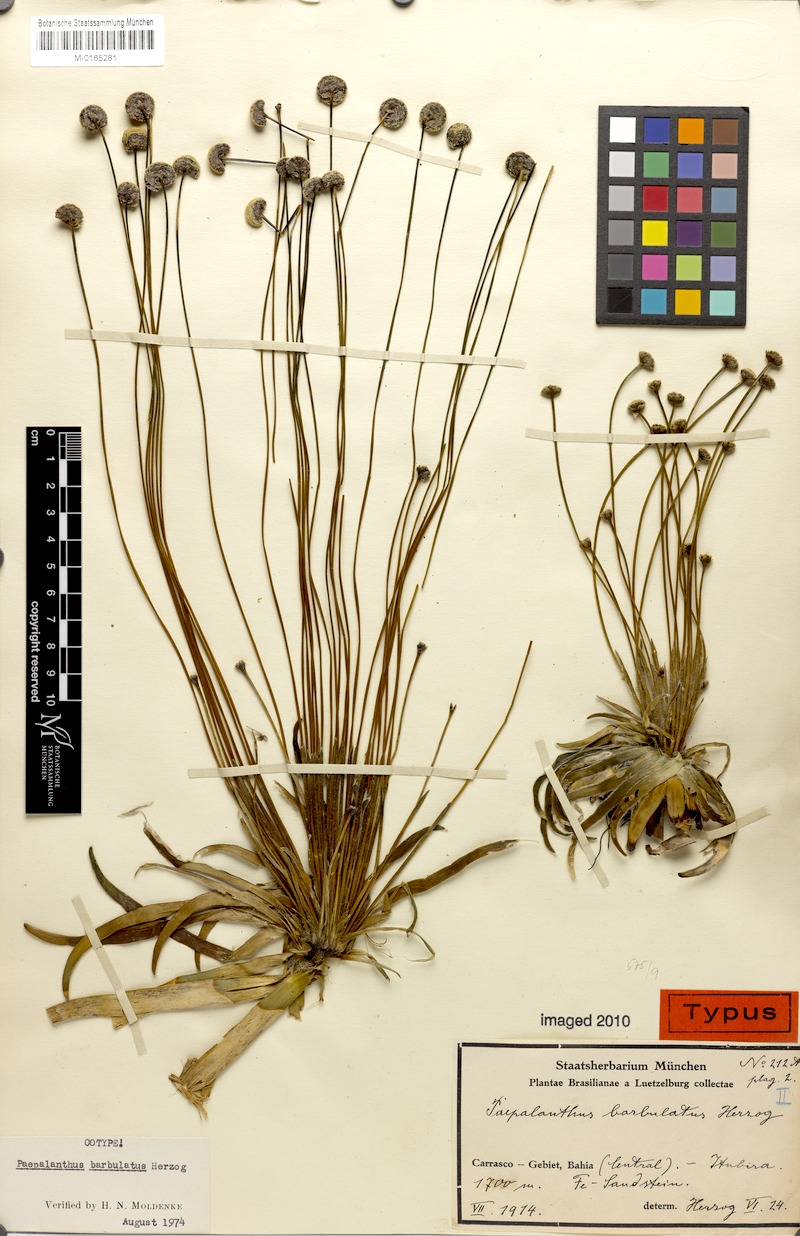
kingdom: Plantae
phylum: Tracheophyta
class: Liliopsida
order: Poales
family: Eriocaulaceae
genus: Paepalanthus
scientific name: Paepalanthus barbulatus
